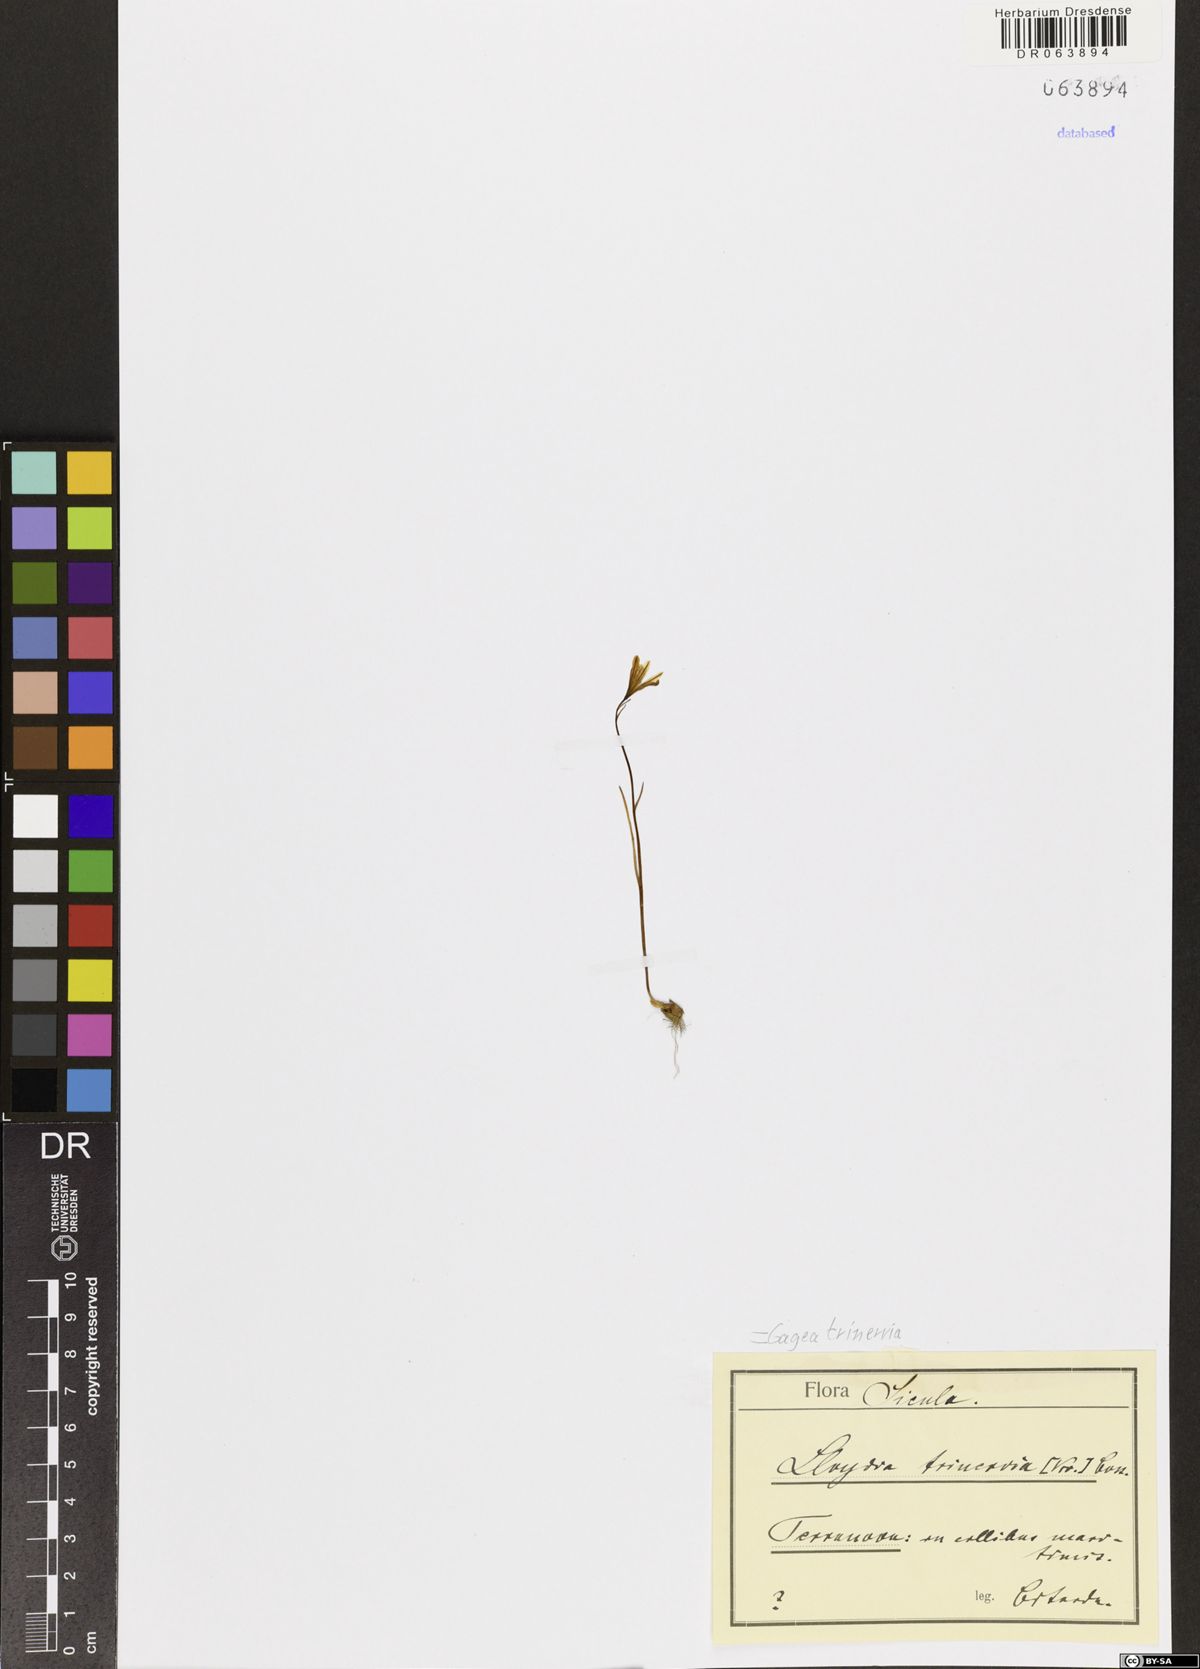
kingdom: Plantae
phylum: Tracheophyta
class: Liliopsida
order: Liliales
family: Liliaceae
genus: Gagea
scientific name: Gagea trinervia
